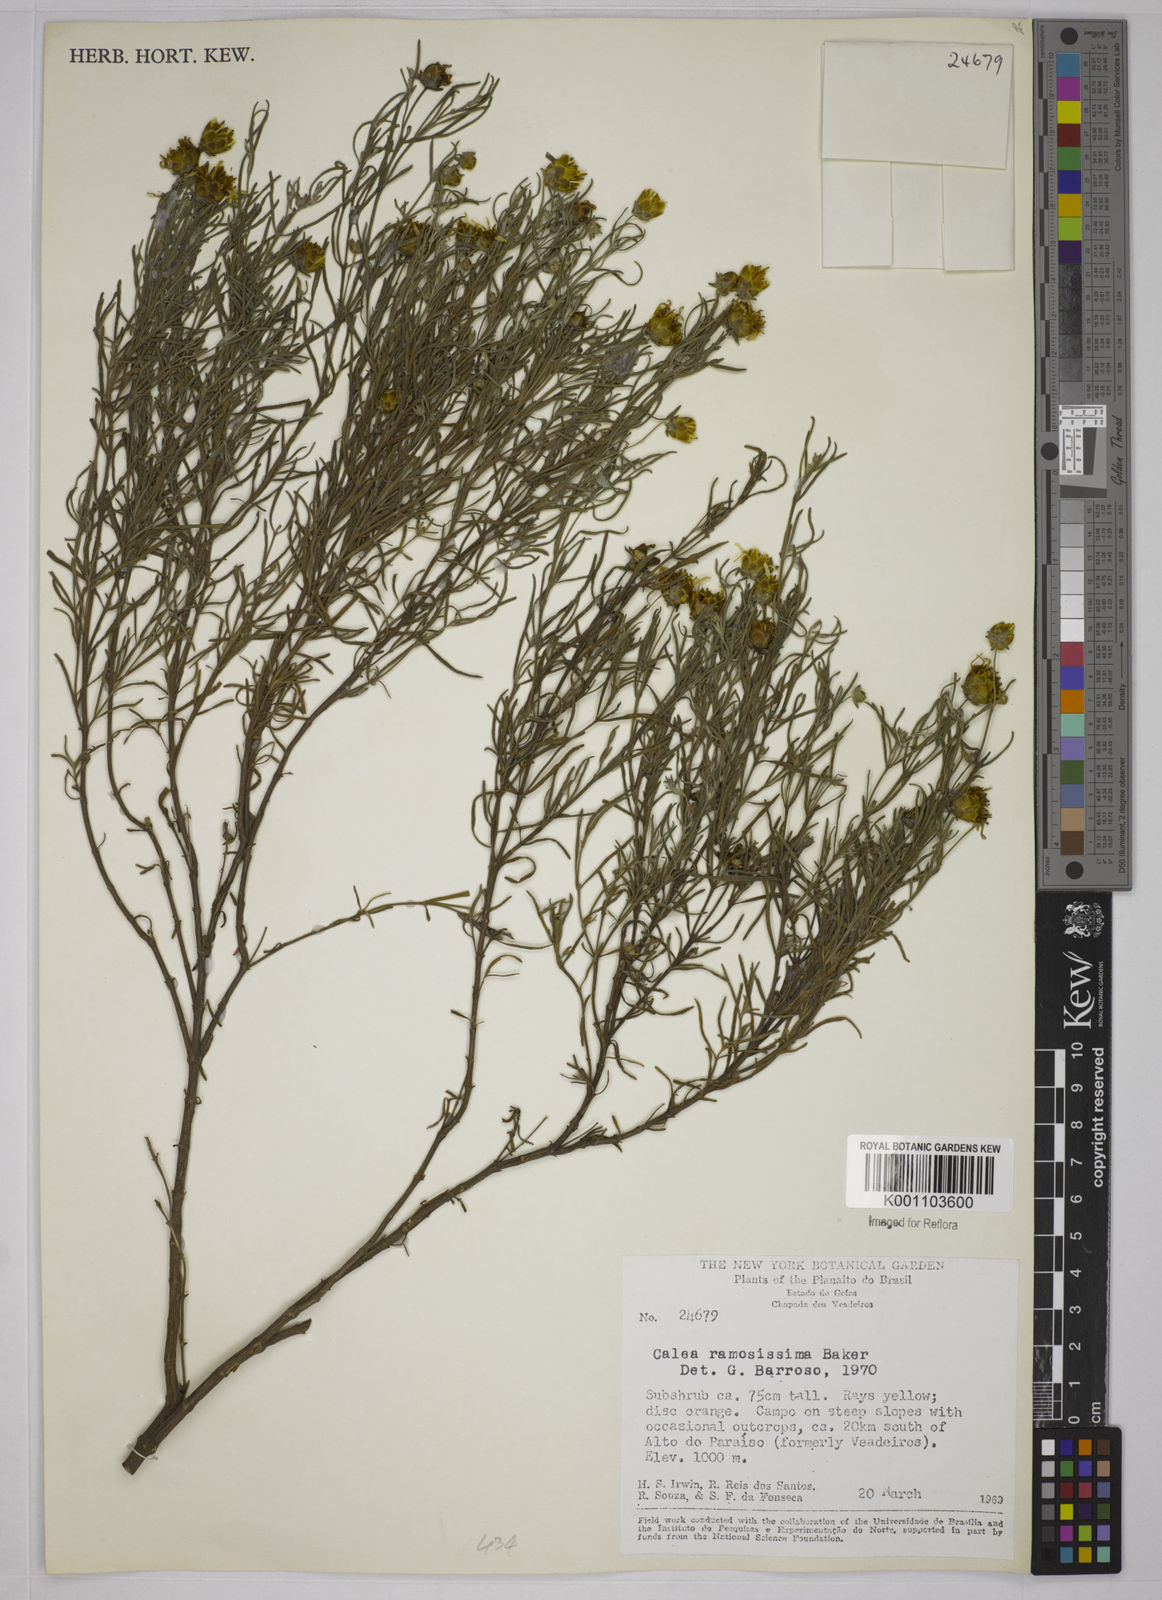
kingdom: Plantae
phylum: Tracheophyta
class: Magnoliopsida
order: Asterales
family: Asteraceae
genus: Calea
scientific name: Calea ramosissima
